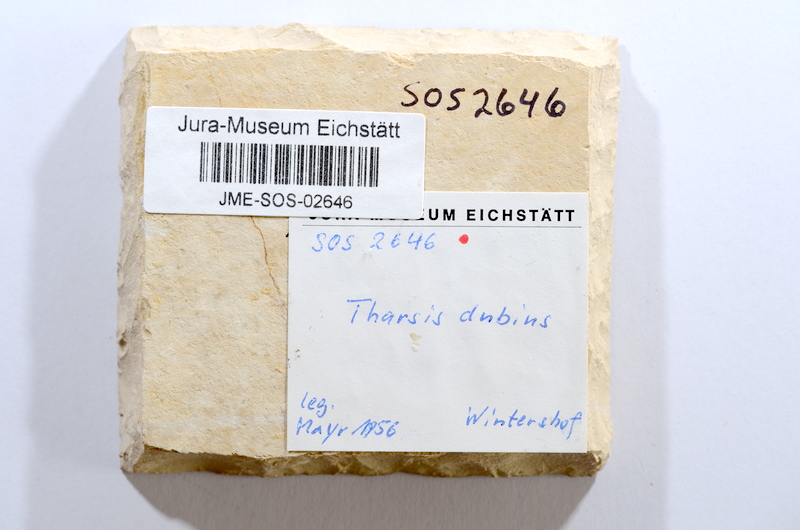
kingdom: Animalia
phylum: Chordata
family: Allothrissopidae
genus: Allothrissops
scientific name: Allothrissops mesogaster
